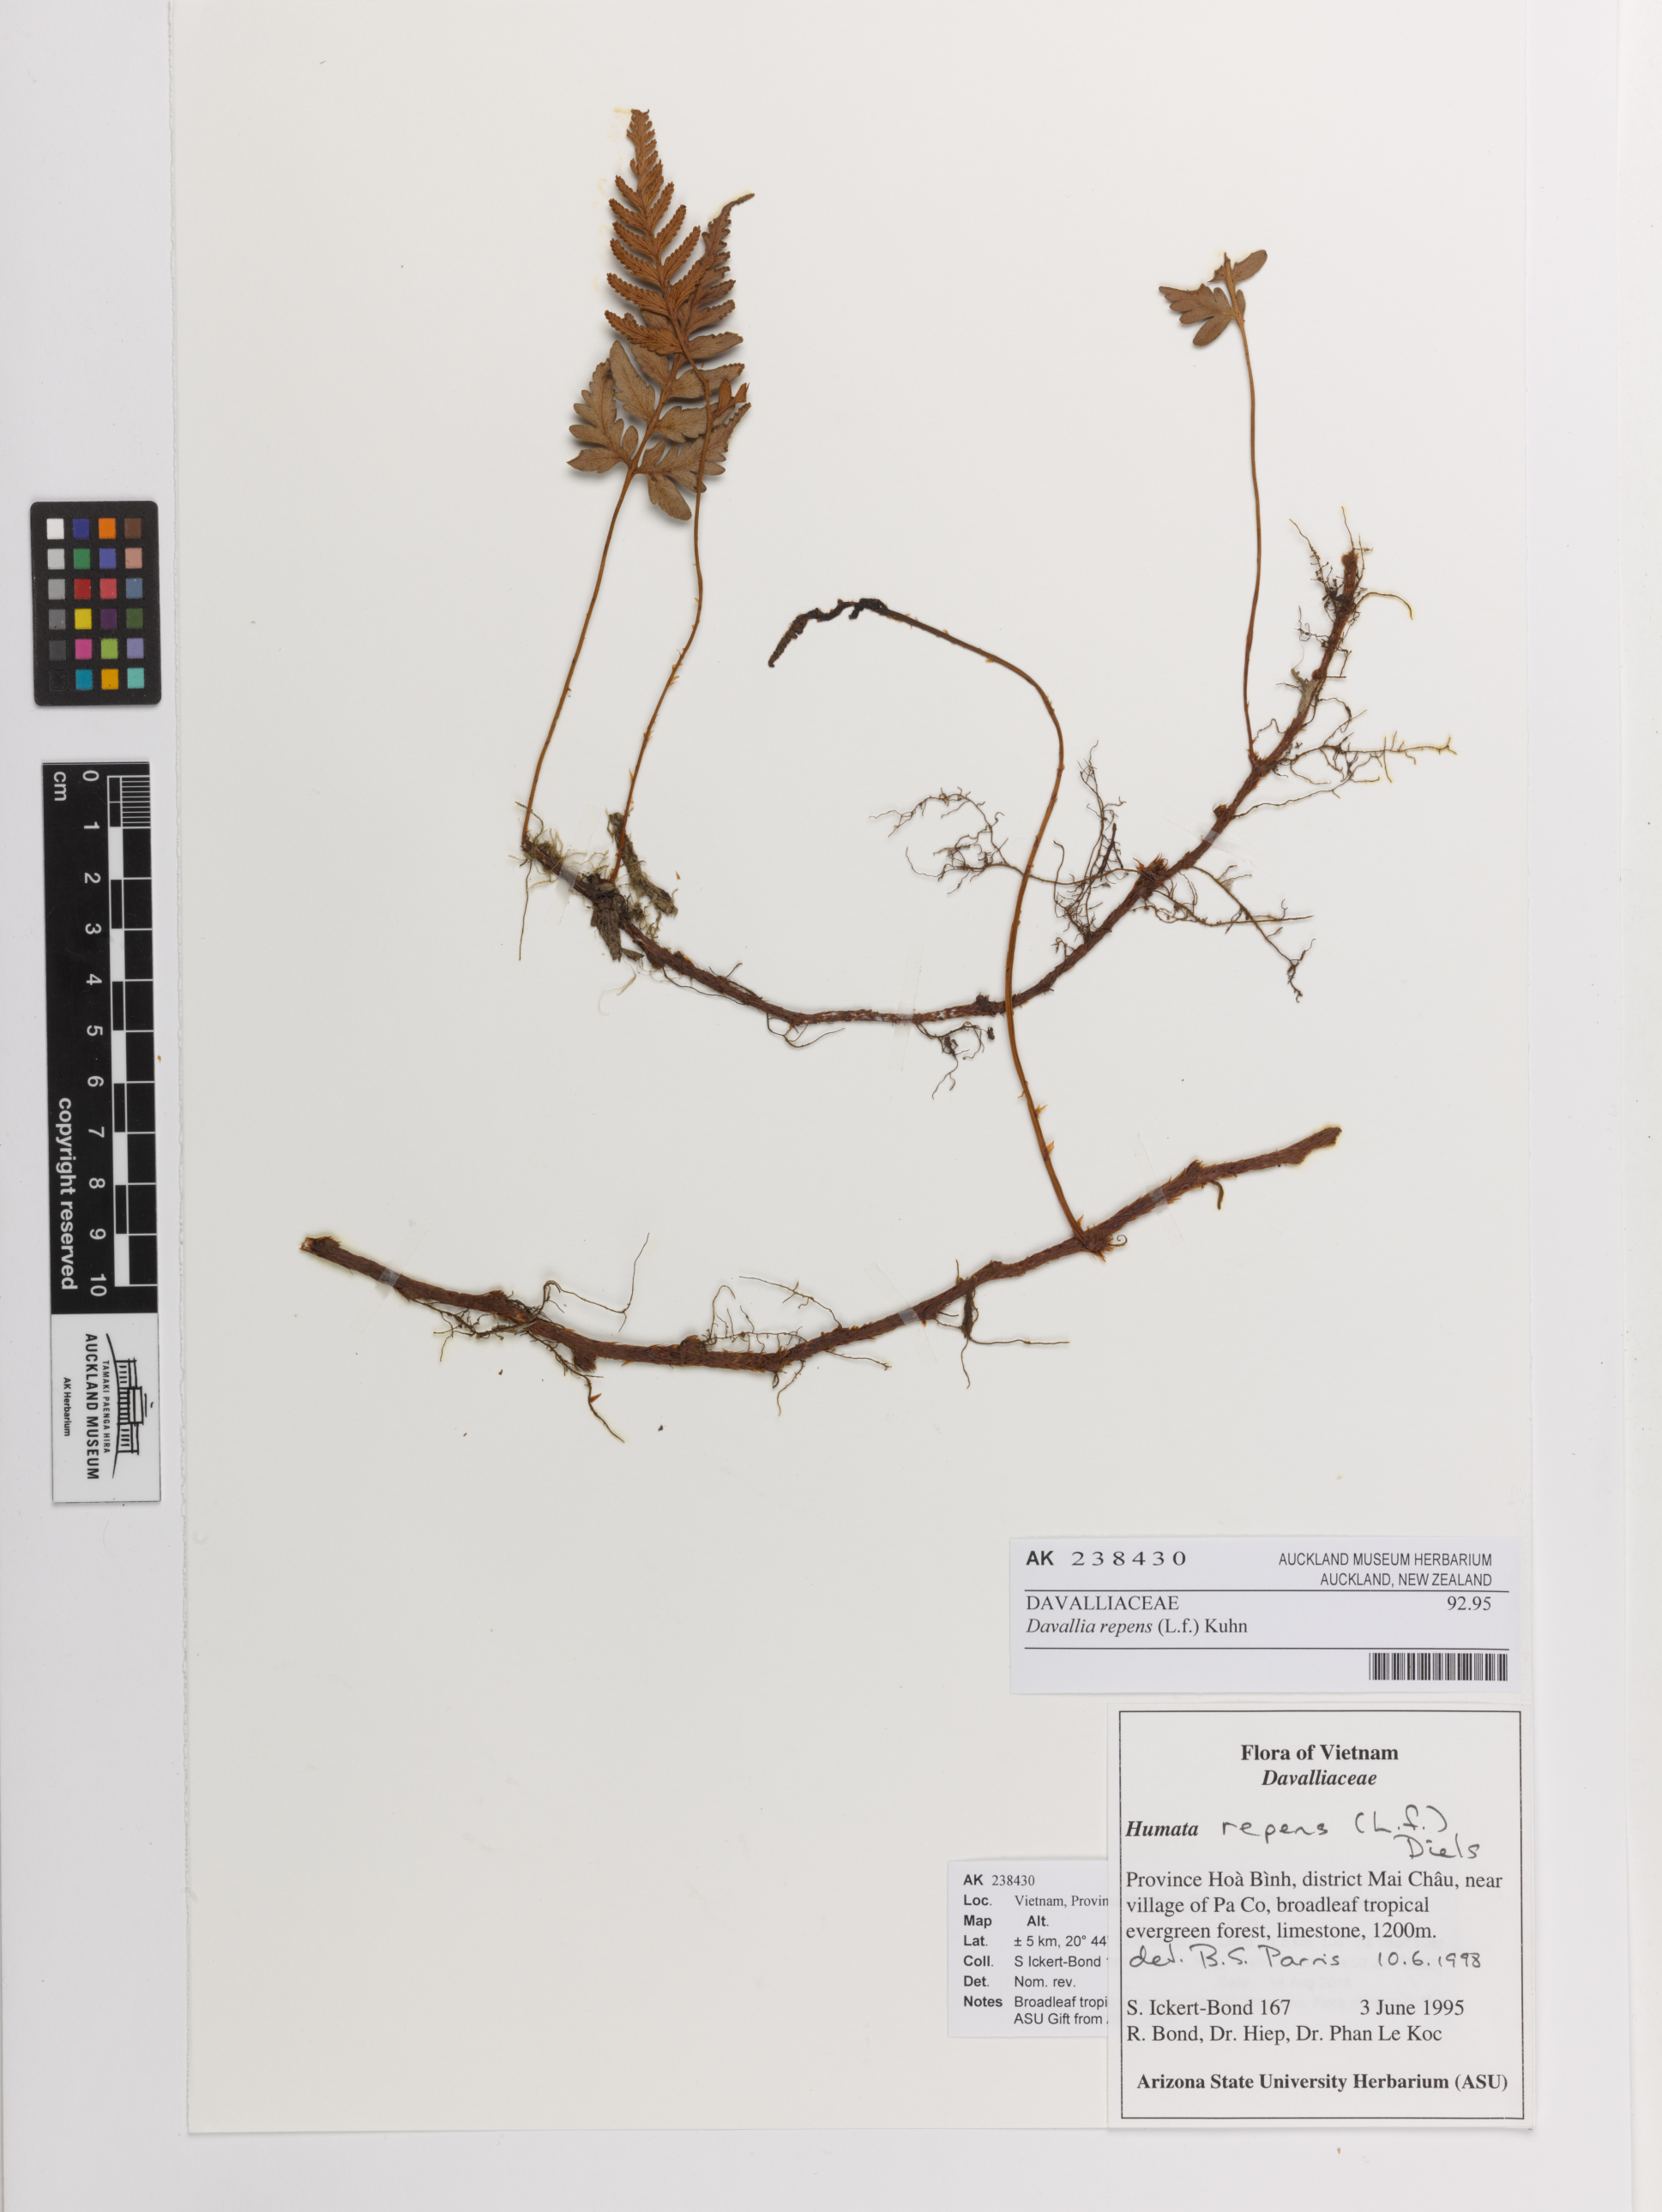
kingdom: Plantae
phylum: Tracheophyta
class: Polypodiopsida
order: Polypodiales
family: Davalliaceae
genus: Davallia
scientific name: Davallia repens
